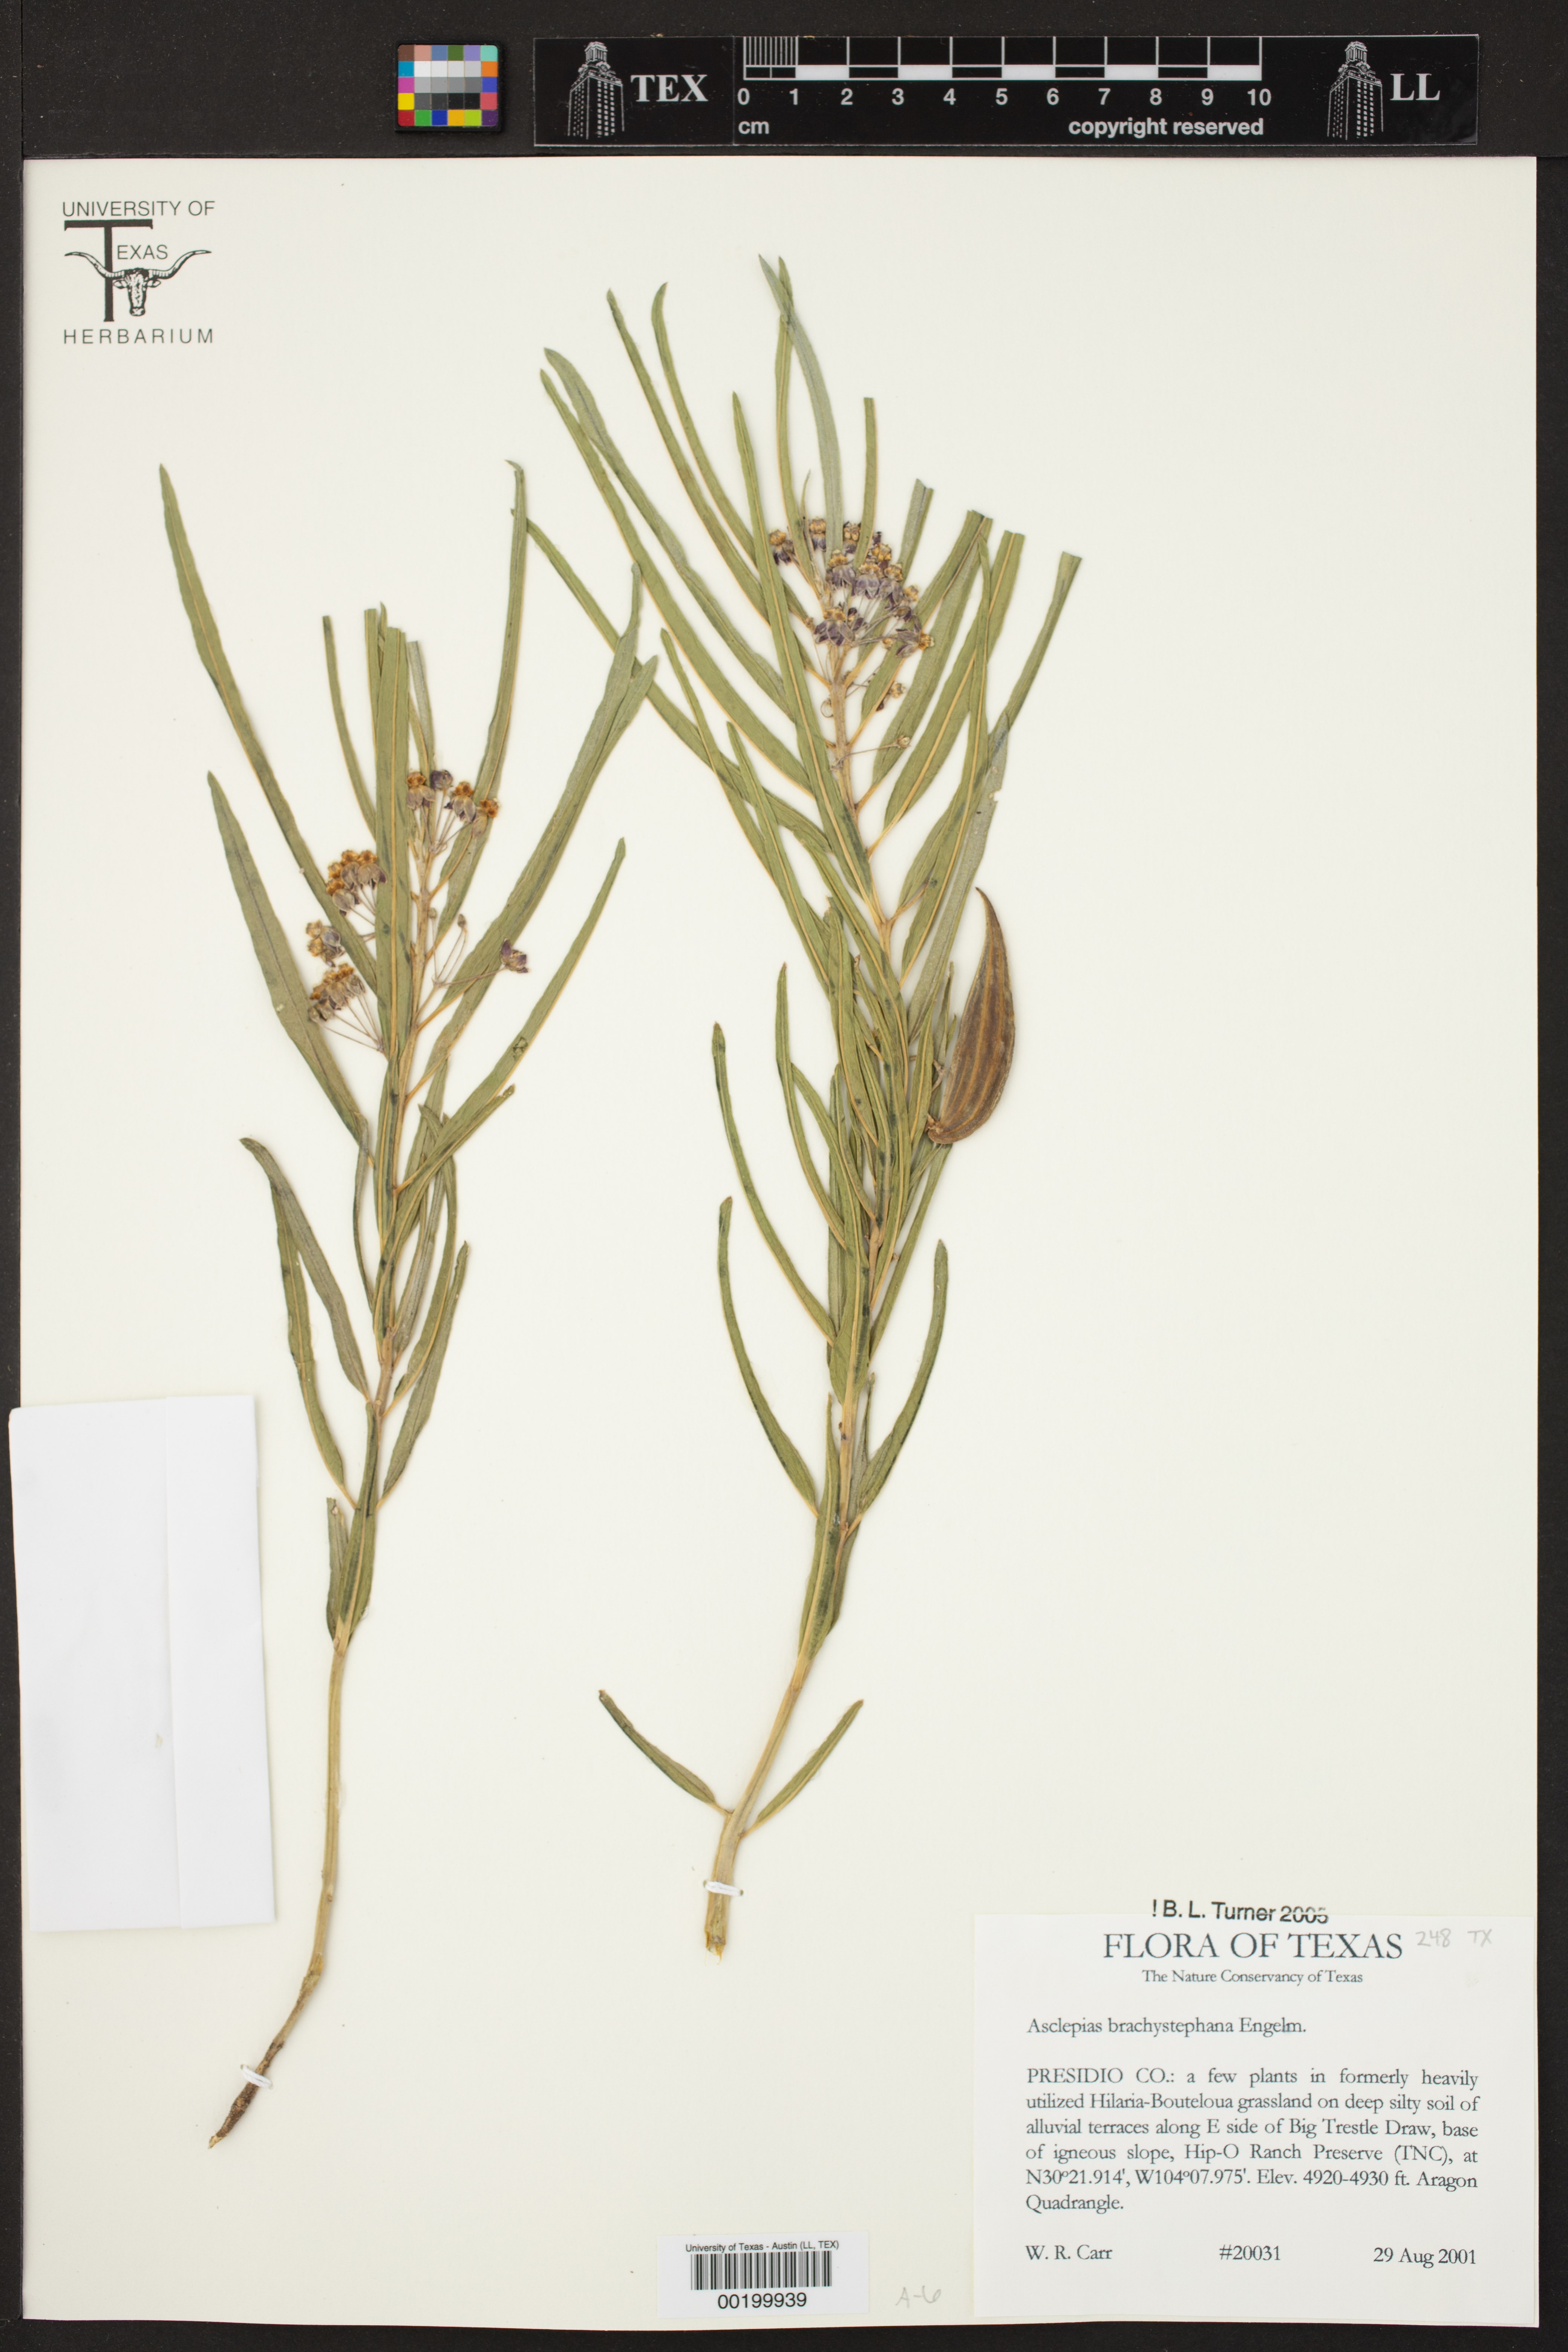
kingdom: Plantae
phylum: Tracheophyta
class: Magnoliopsida
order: Gentianales
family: Apocynaceae
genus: Asclepias
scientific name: Asclepias brachystephana
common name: Shortcrown milkweed
